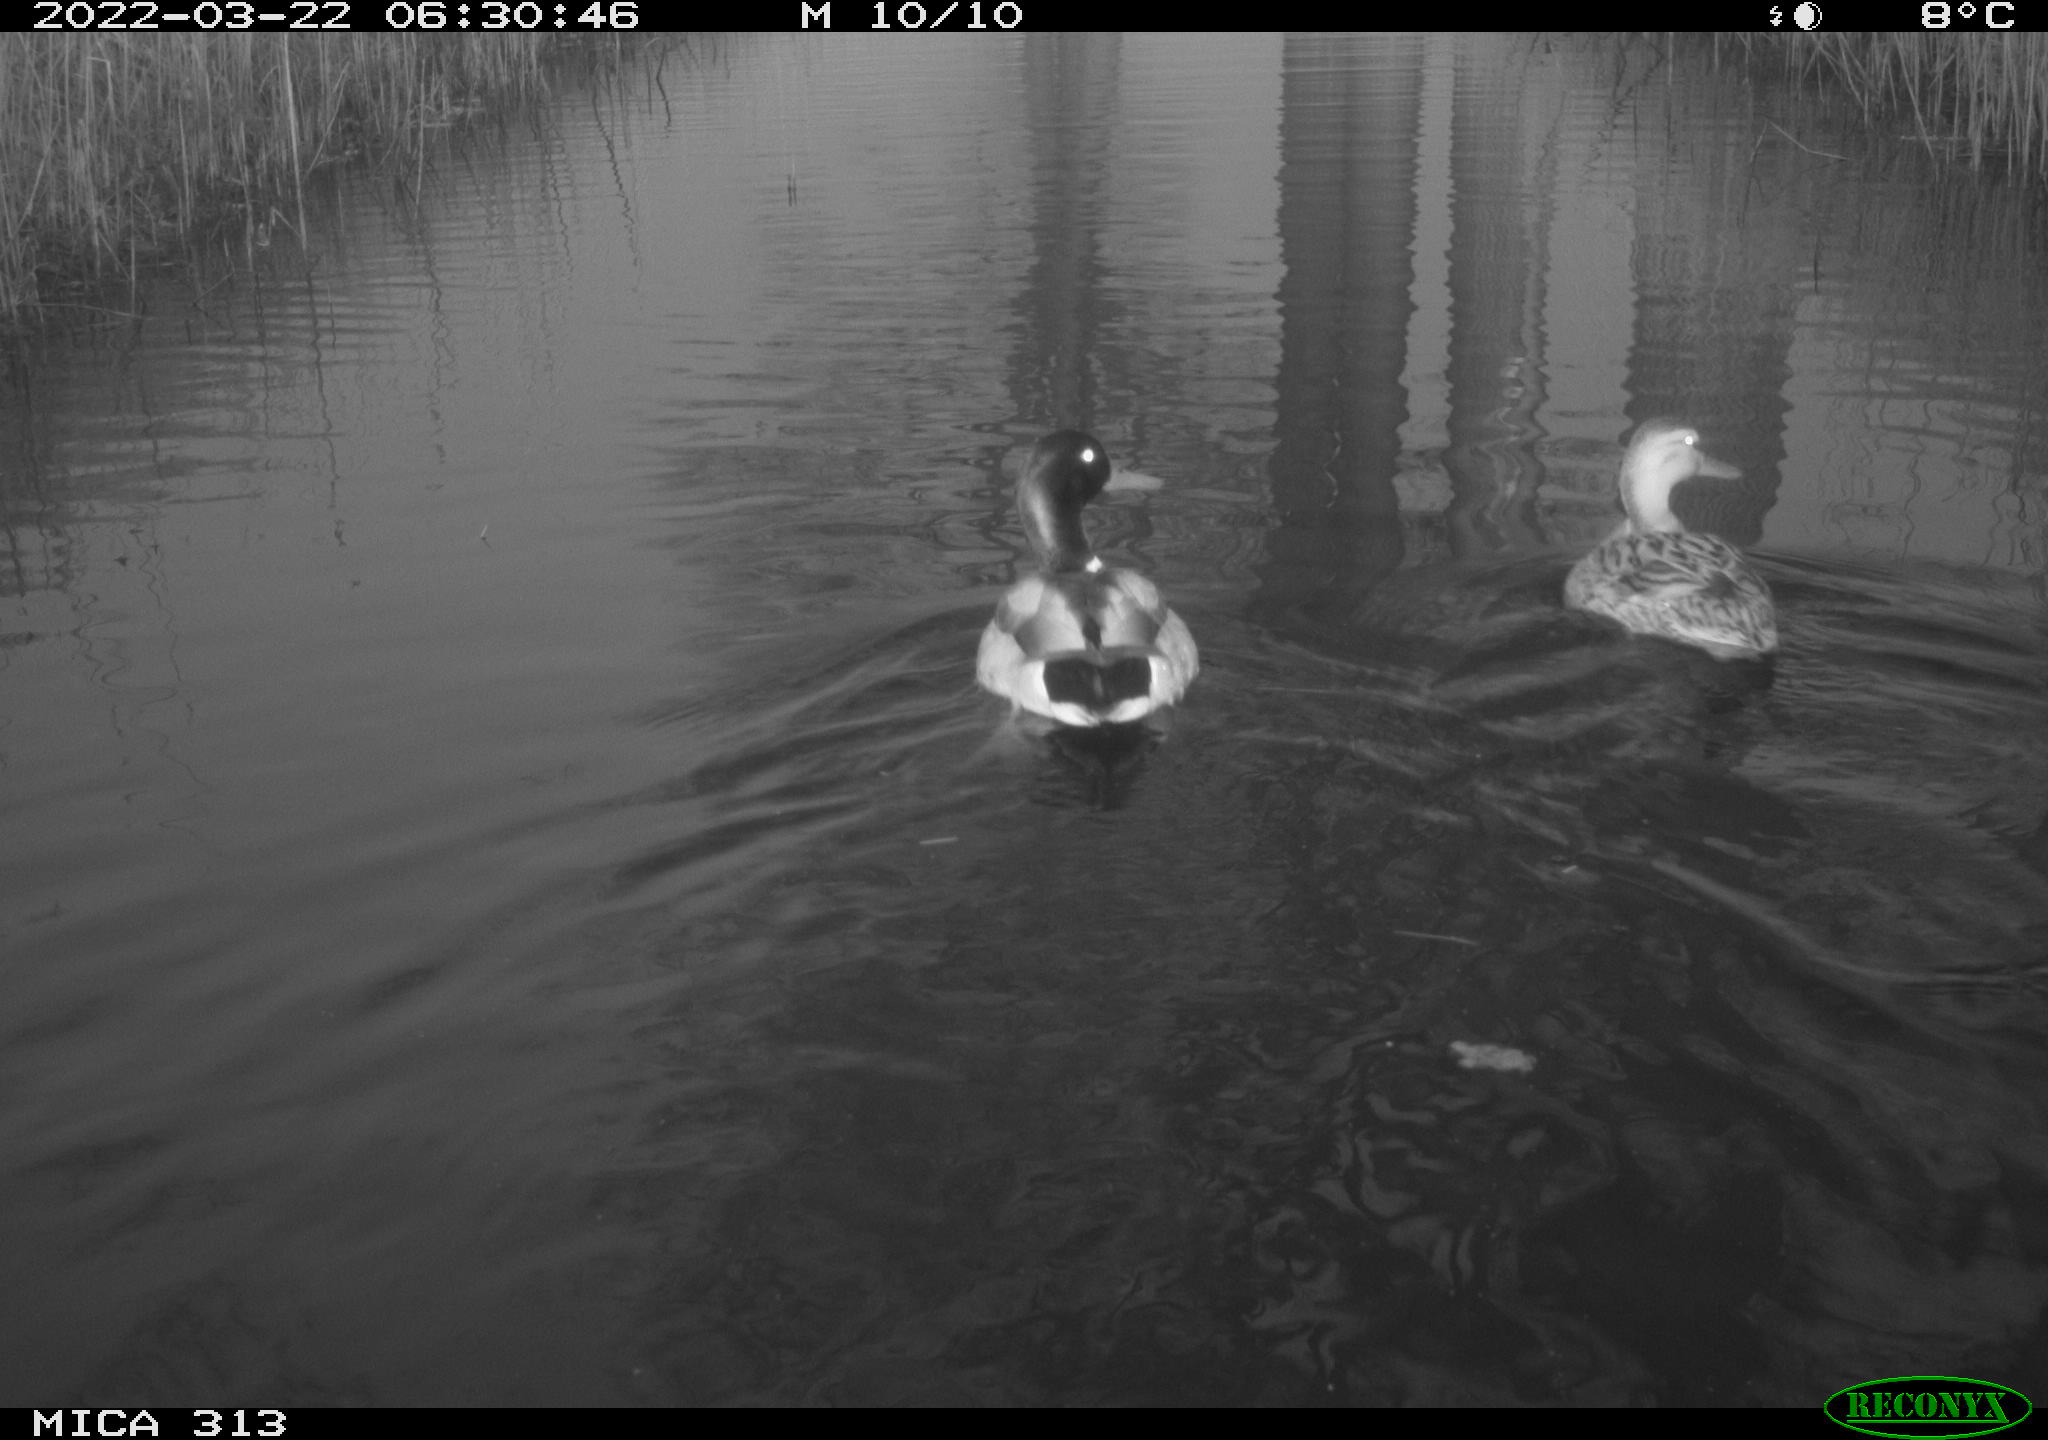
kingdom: Animalia
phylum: Chordata
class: Aves
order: Anseriformes
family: Anatidae
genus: Anas
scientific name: Anas platyrhynchos
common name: Mallard
